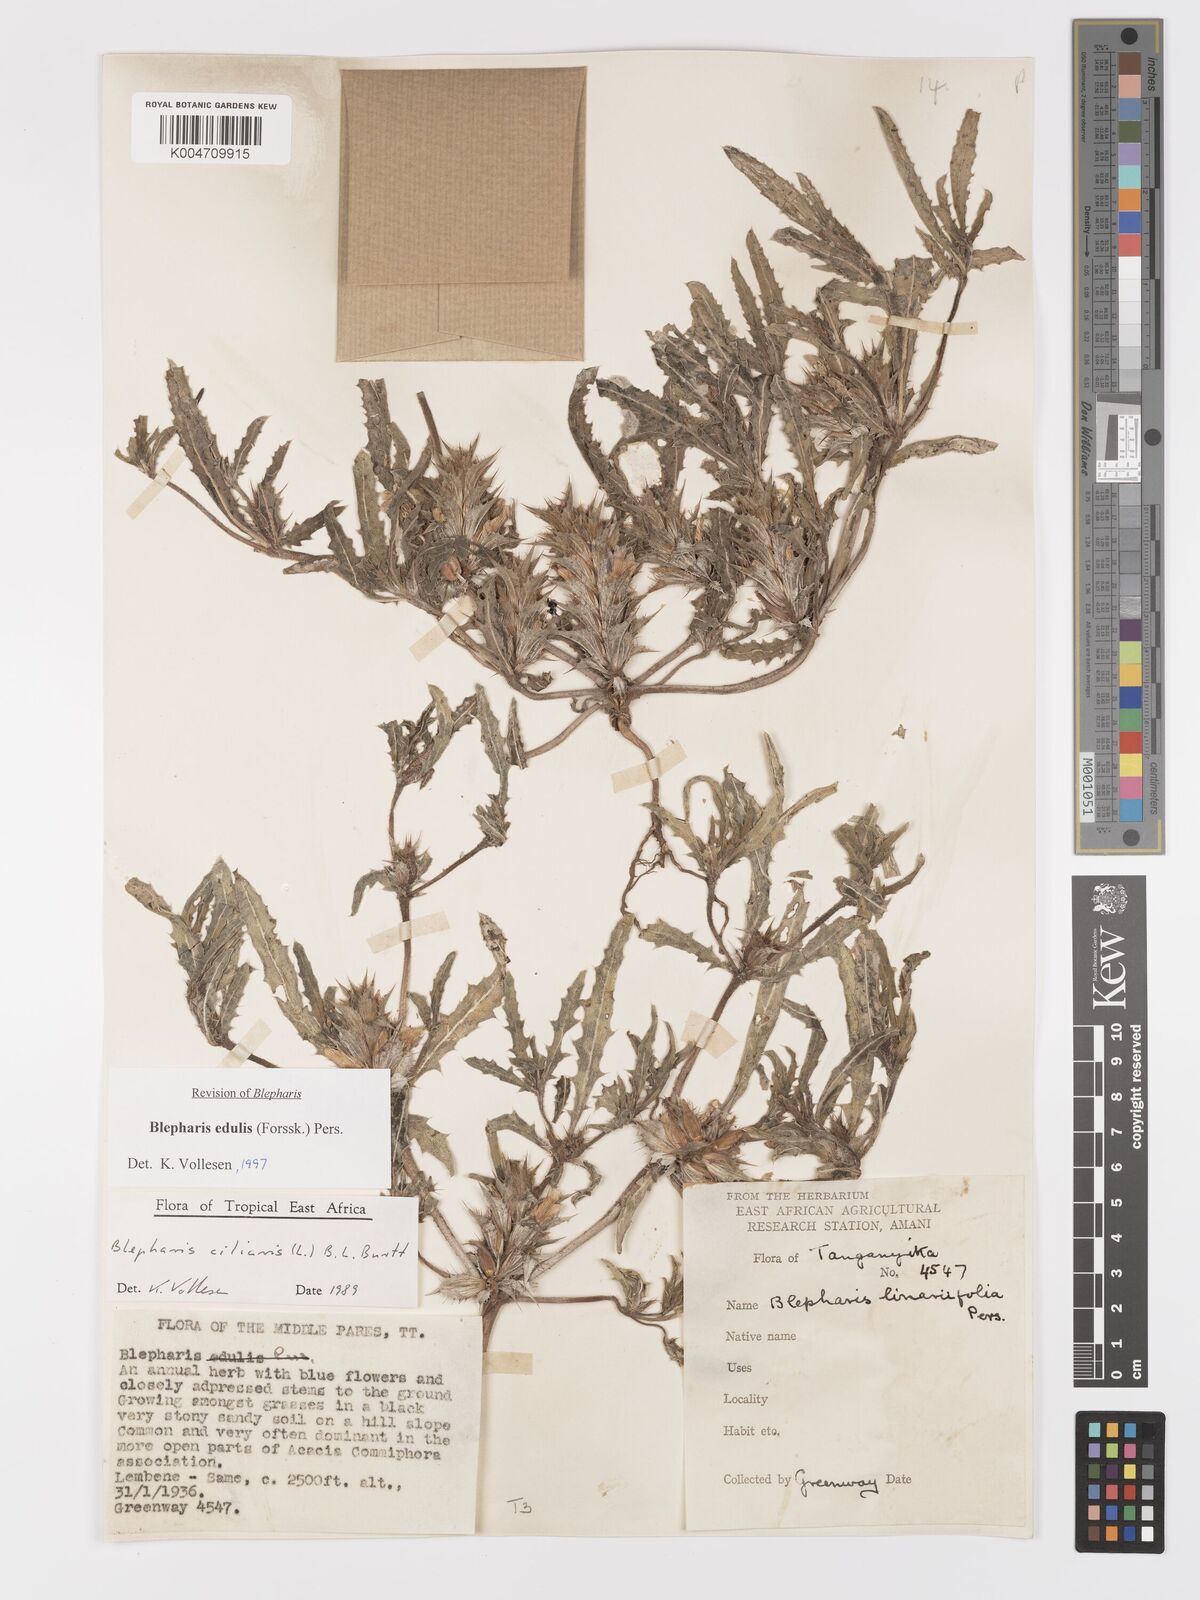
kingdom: Plantae
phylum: Tracheophyta
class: Magnoliopsida
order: Lamiales
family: Acanthaceae
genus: Blepharis
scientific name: Blepharis edulis
